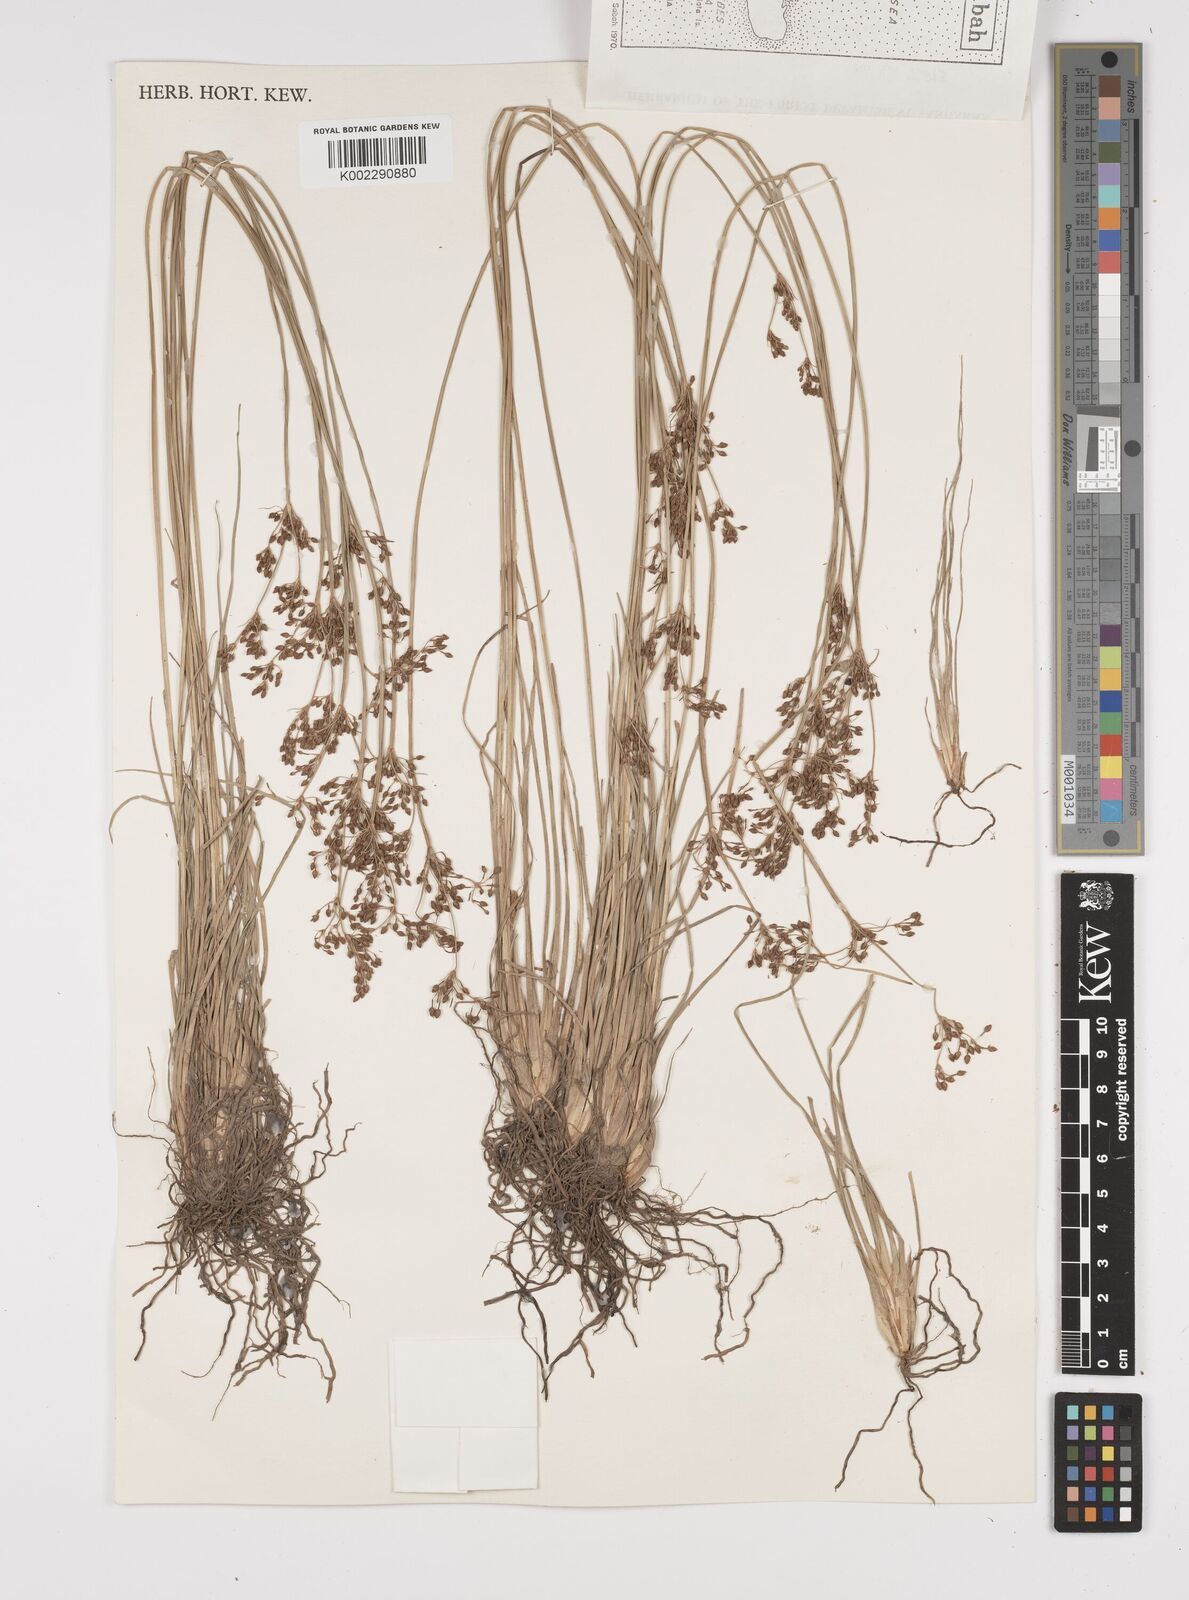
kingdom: Plantae
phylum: Tracheophyta
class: Liliopsida
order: Poales
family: Cyperaceae
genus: Fimbristylis
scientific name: Fimbristylis littoralis
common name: Fimbry
